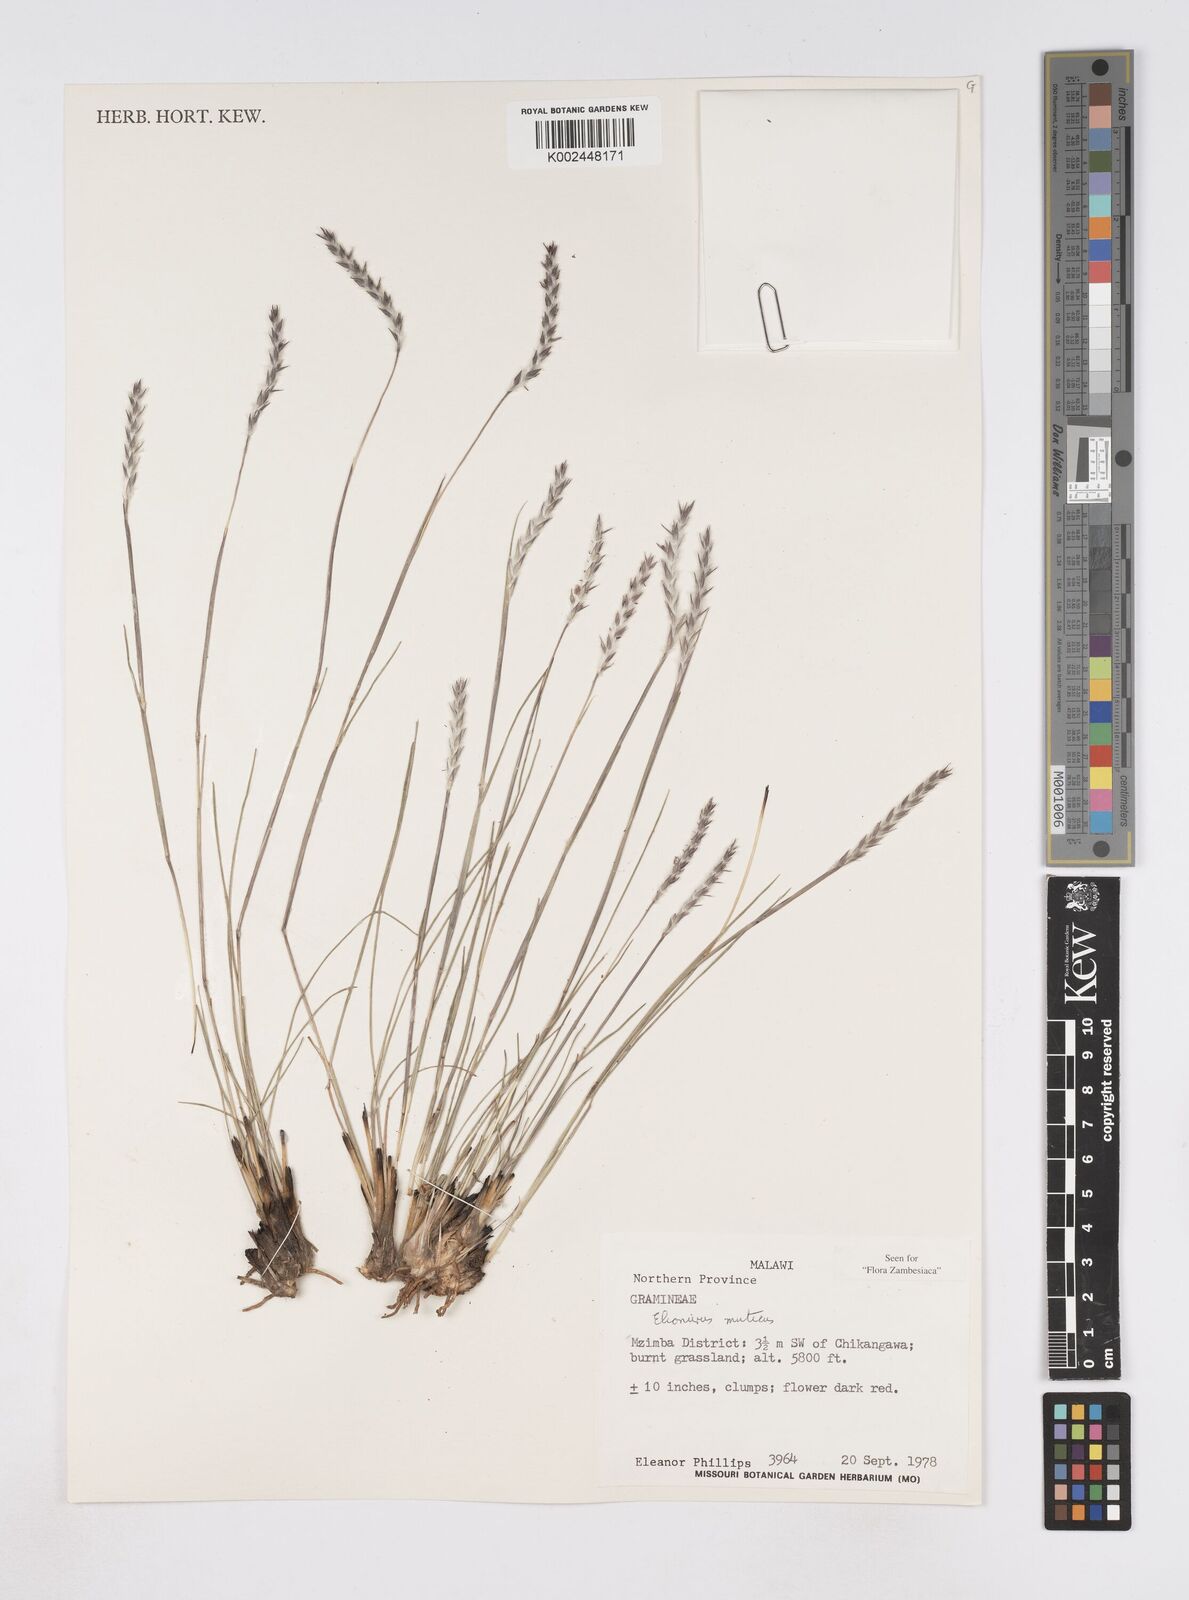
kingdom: Plantae
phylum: Tracheophyta
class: Liliopsida
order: Poales
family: Poaceae
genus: Elionurus
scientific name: Elionurus muticus
